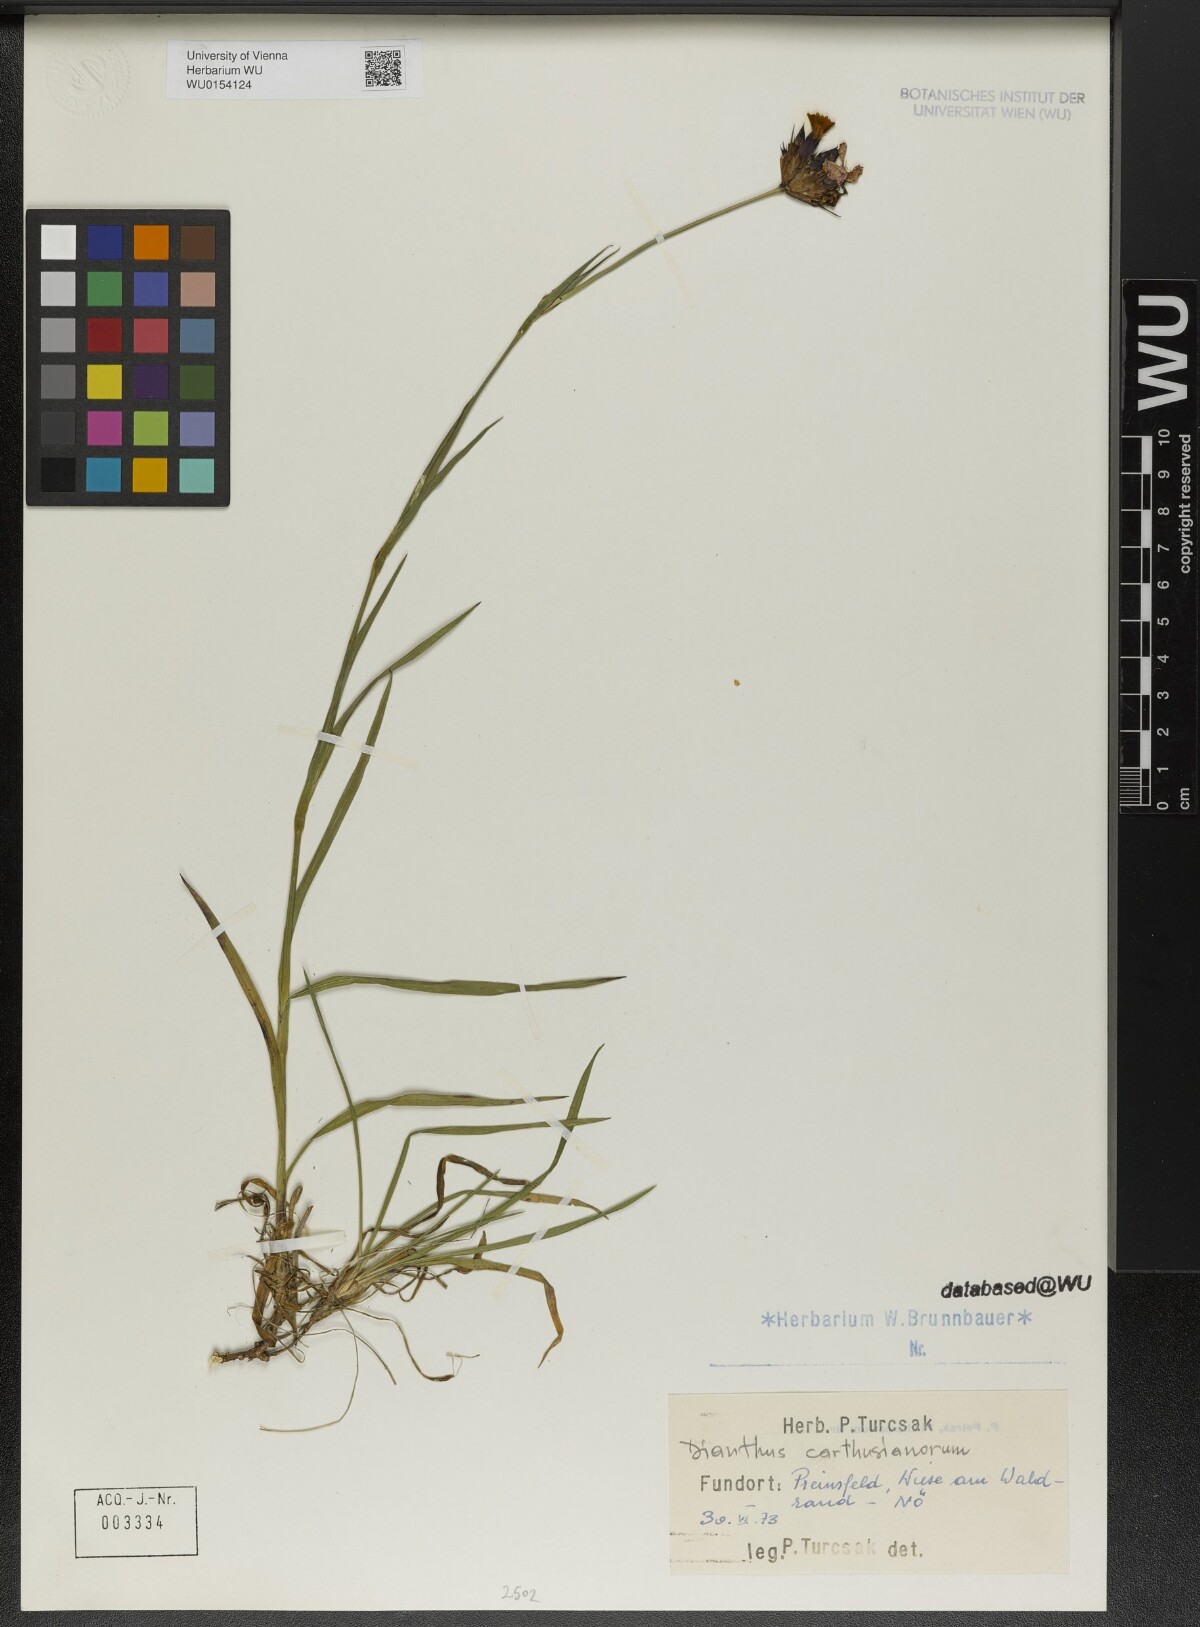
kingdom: Plantae
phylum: Tracheophyta
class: Magnoliopsida
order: Caryophyllales
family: Caryophyllaceae
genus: Dianthus
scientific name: Dianthus carthusianorum
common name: Carthusian pink
